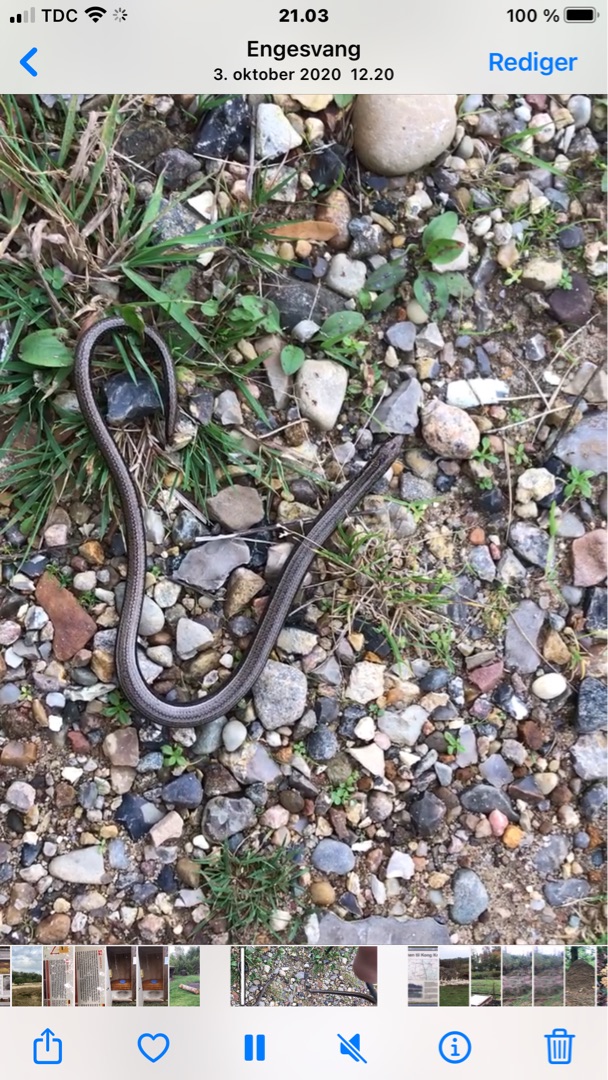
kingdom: Animalia
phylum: Chordata
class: Squamata
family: Anguidae
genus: Anguis
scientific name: Anguis fragilis
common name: Stålorm
